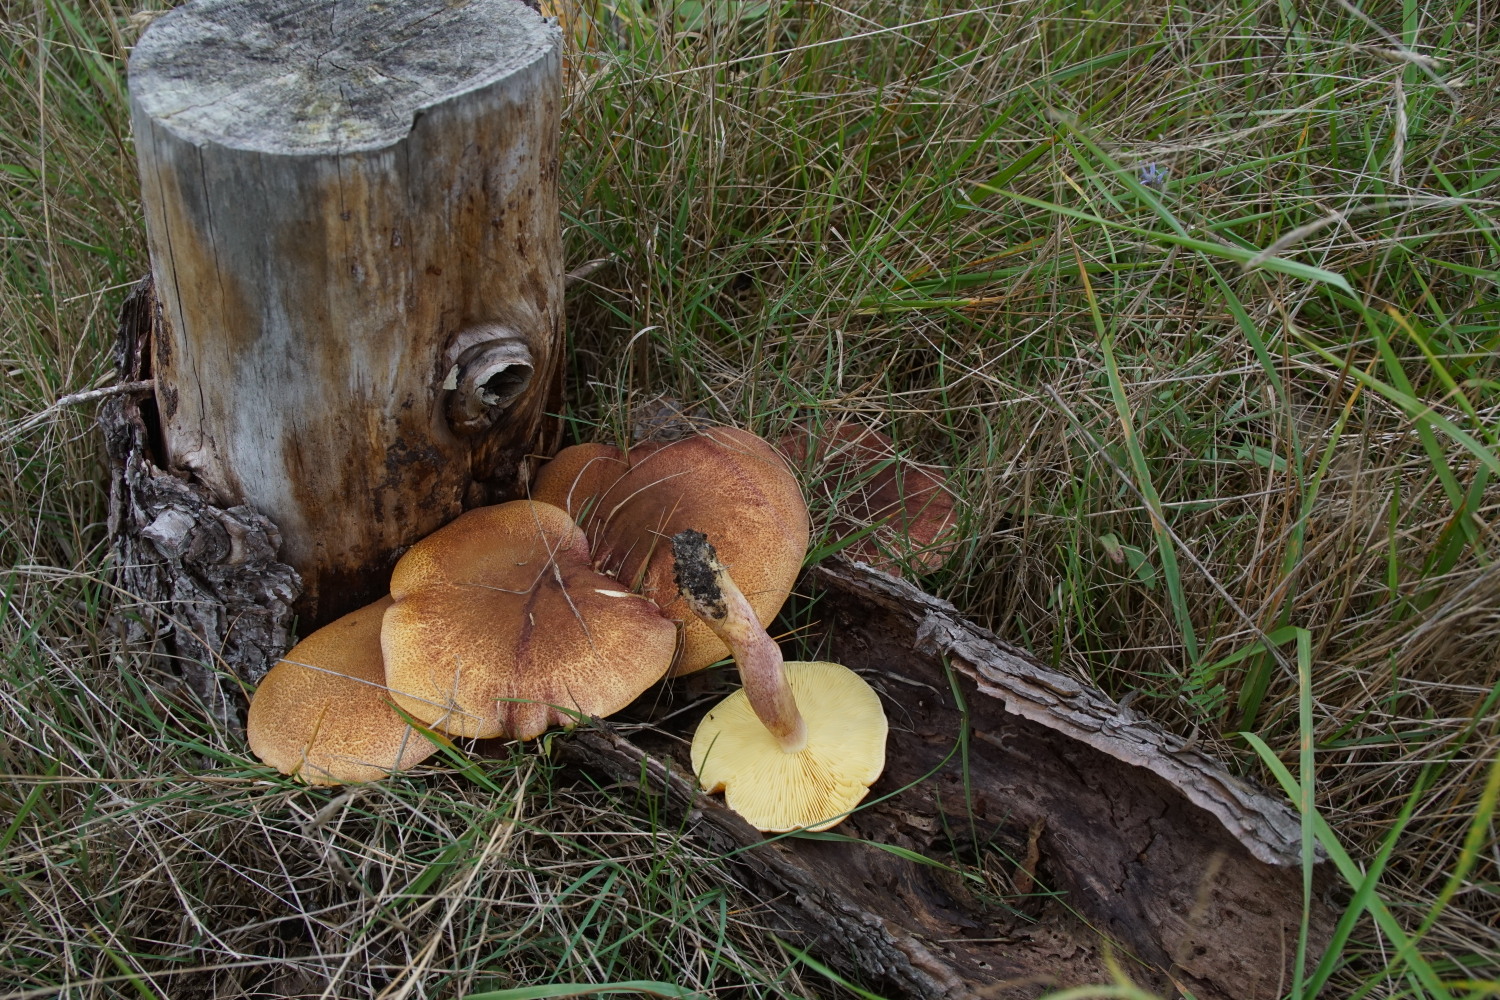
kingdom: Fungi
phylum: Basidiomycota
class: Agaricomycetes
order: Agaricales
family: Tricholomataceae
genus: Tricholomopsis
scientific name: Tricholomopsis rutilans
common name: purpur-væbnerhat
